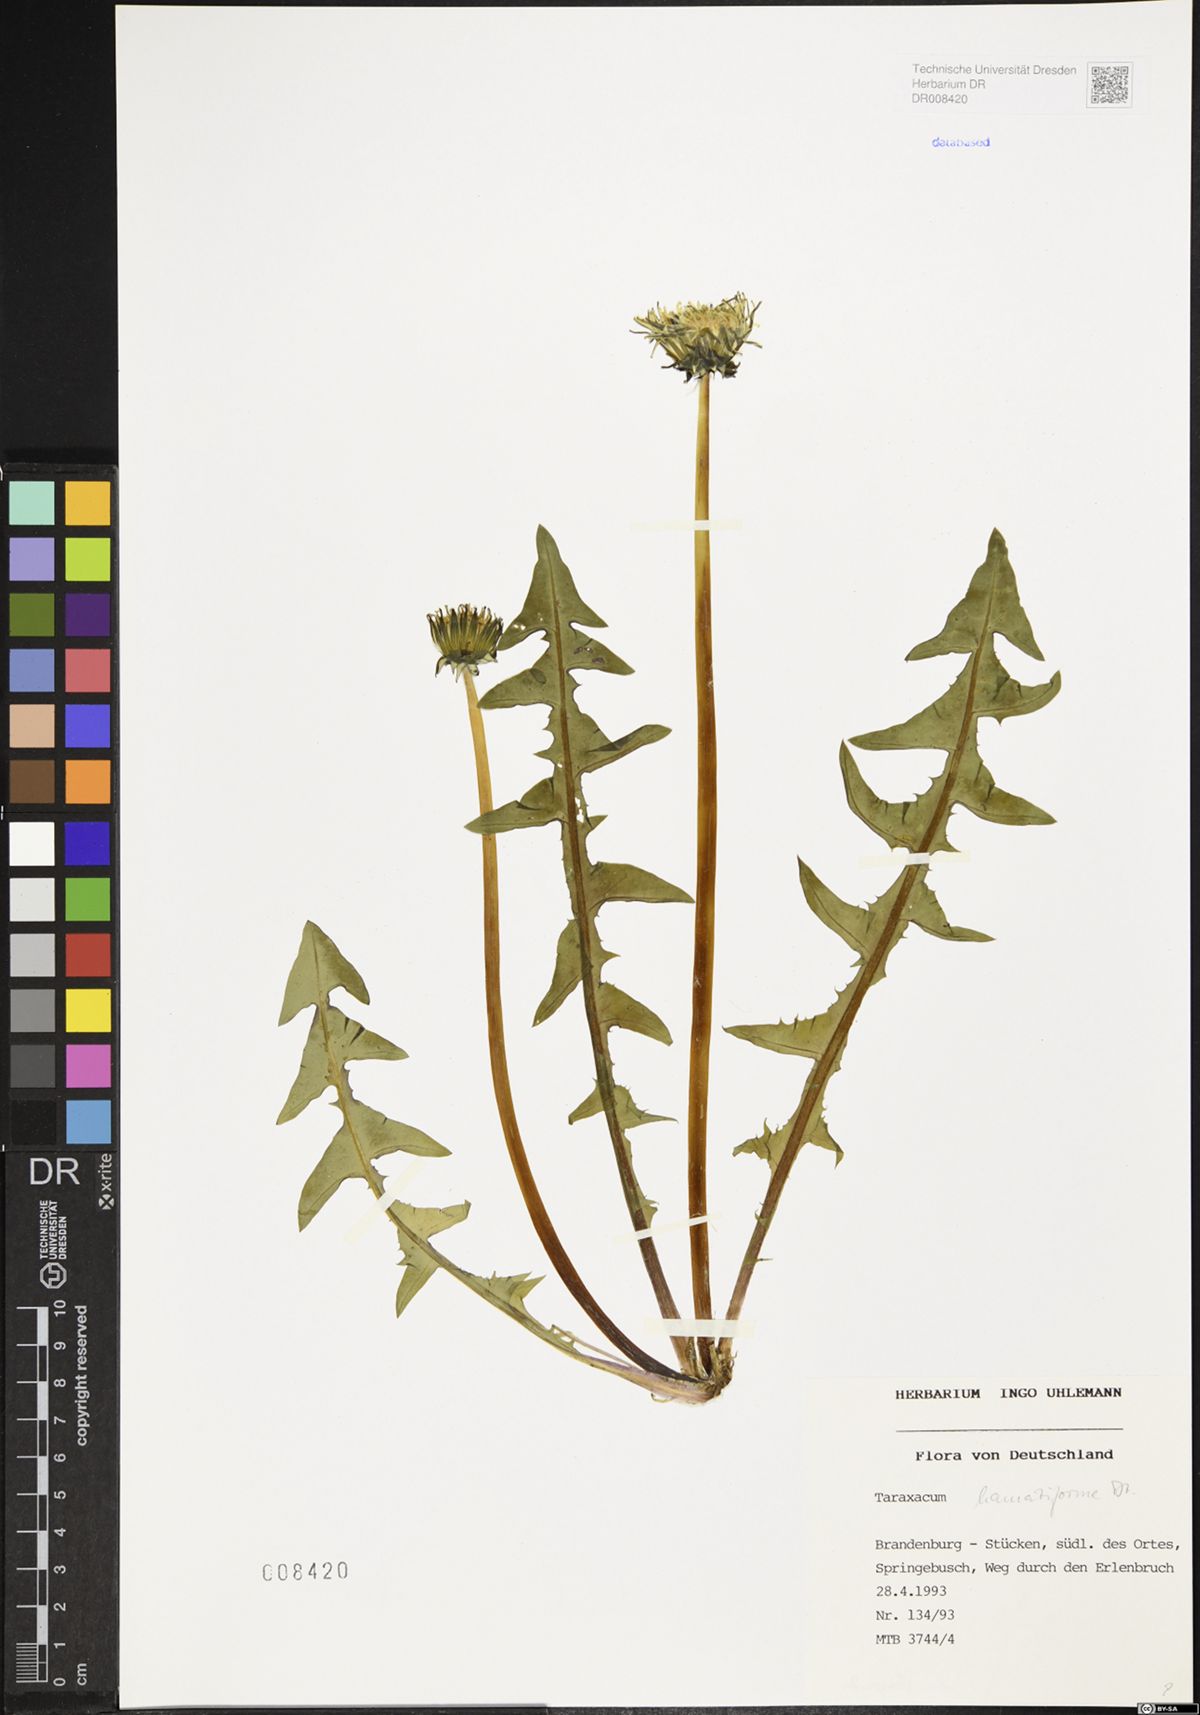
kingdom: Plantae
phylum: Tracheophyta
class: Magnoliopsida
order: Asterales
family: Asteraceae
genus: Taraxacum
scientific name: Taraxacum hamatiforme
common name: Asymmetrical hook-lobed dandelion
